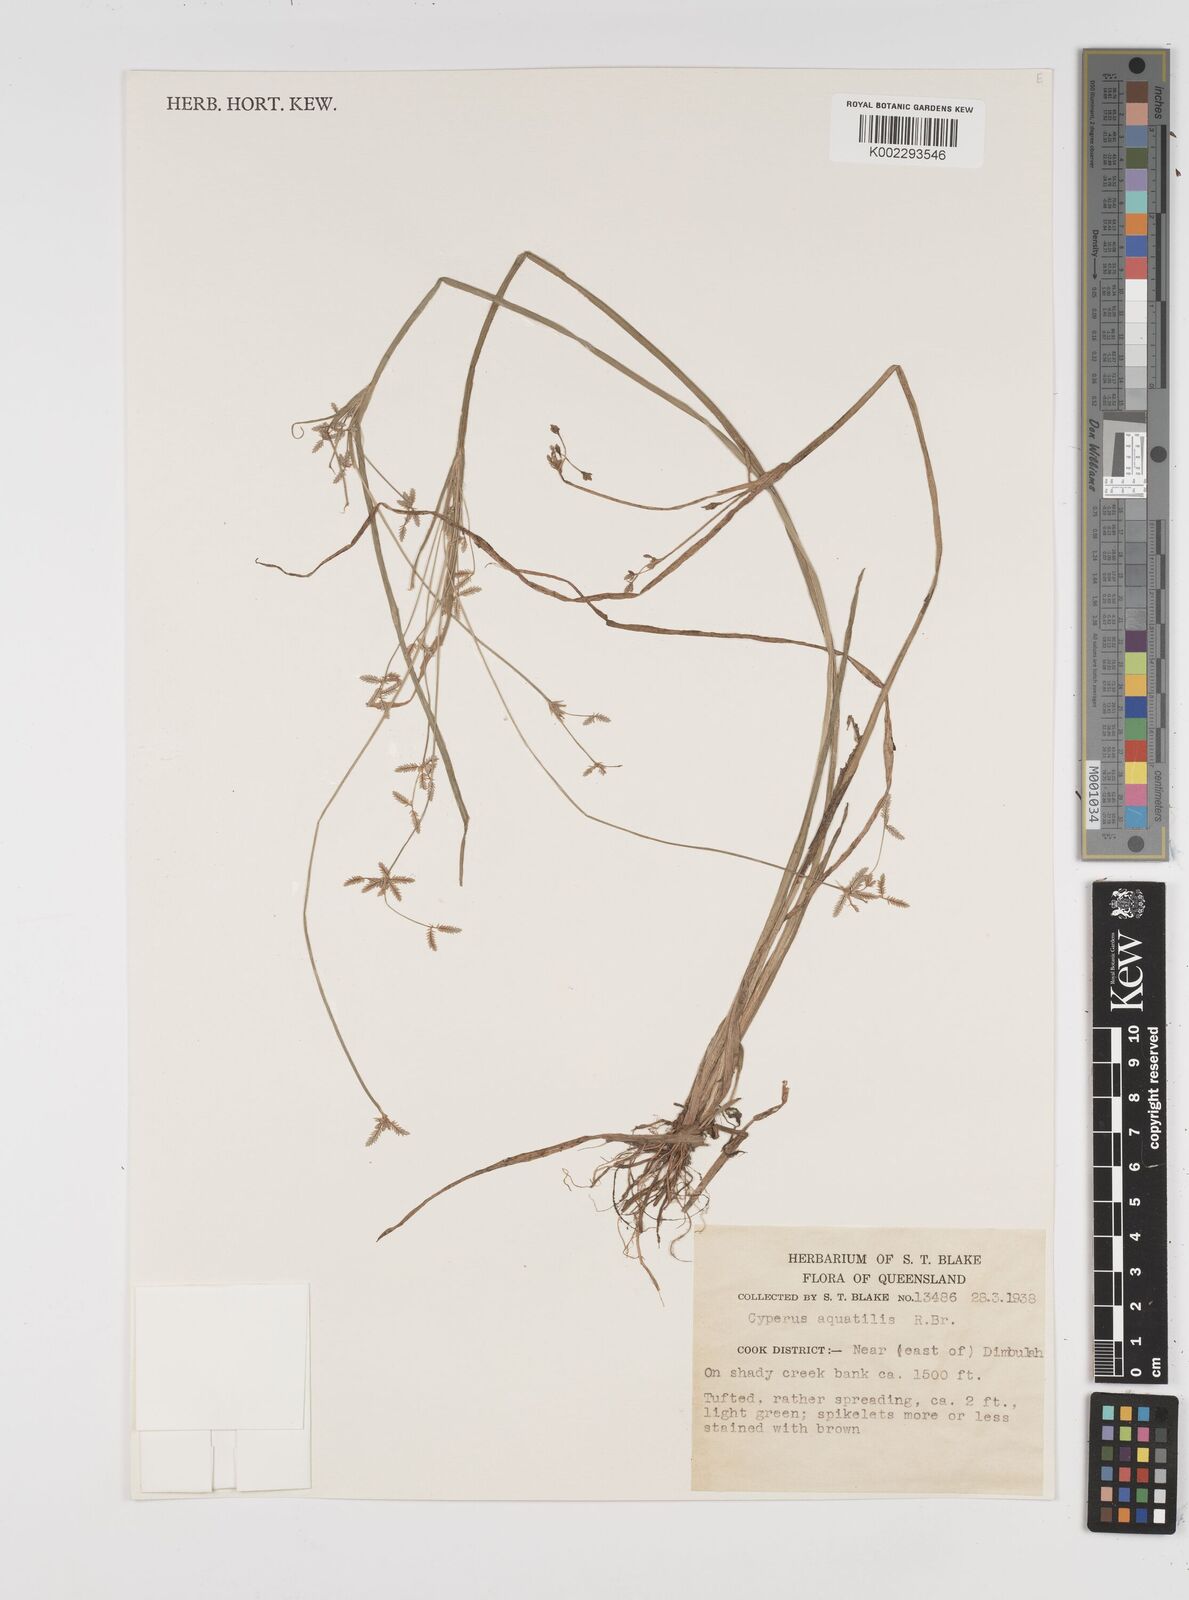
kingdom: Plantae
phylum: Tracheophyta
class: Liliopsida
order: Poales
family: Cyperaceae
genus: Cyperus
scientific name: Cyperus aquatilis
